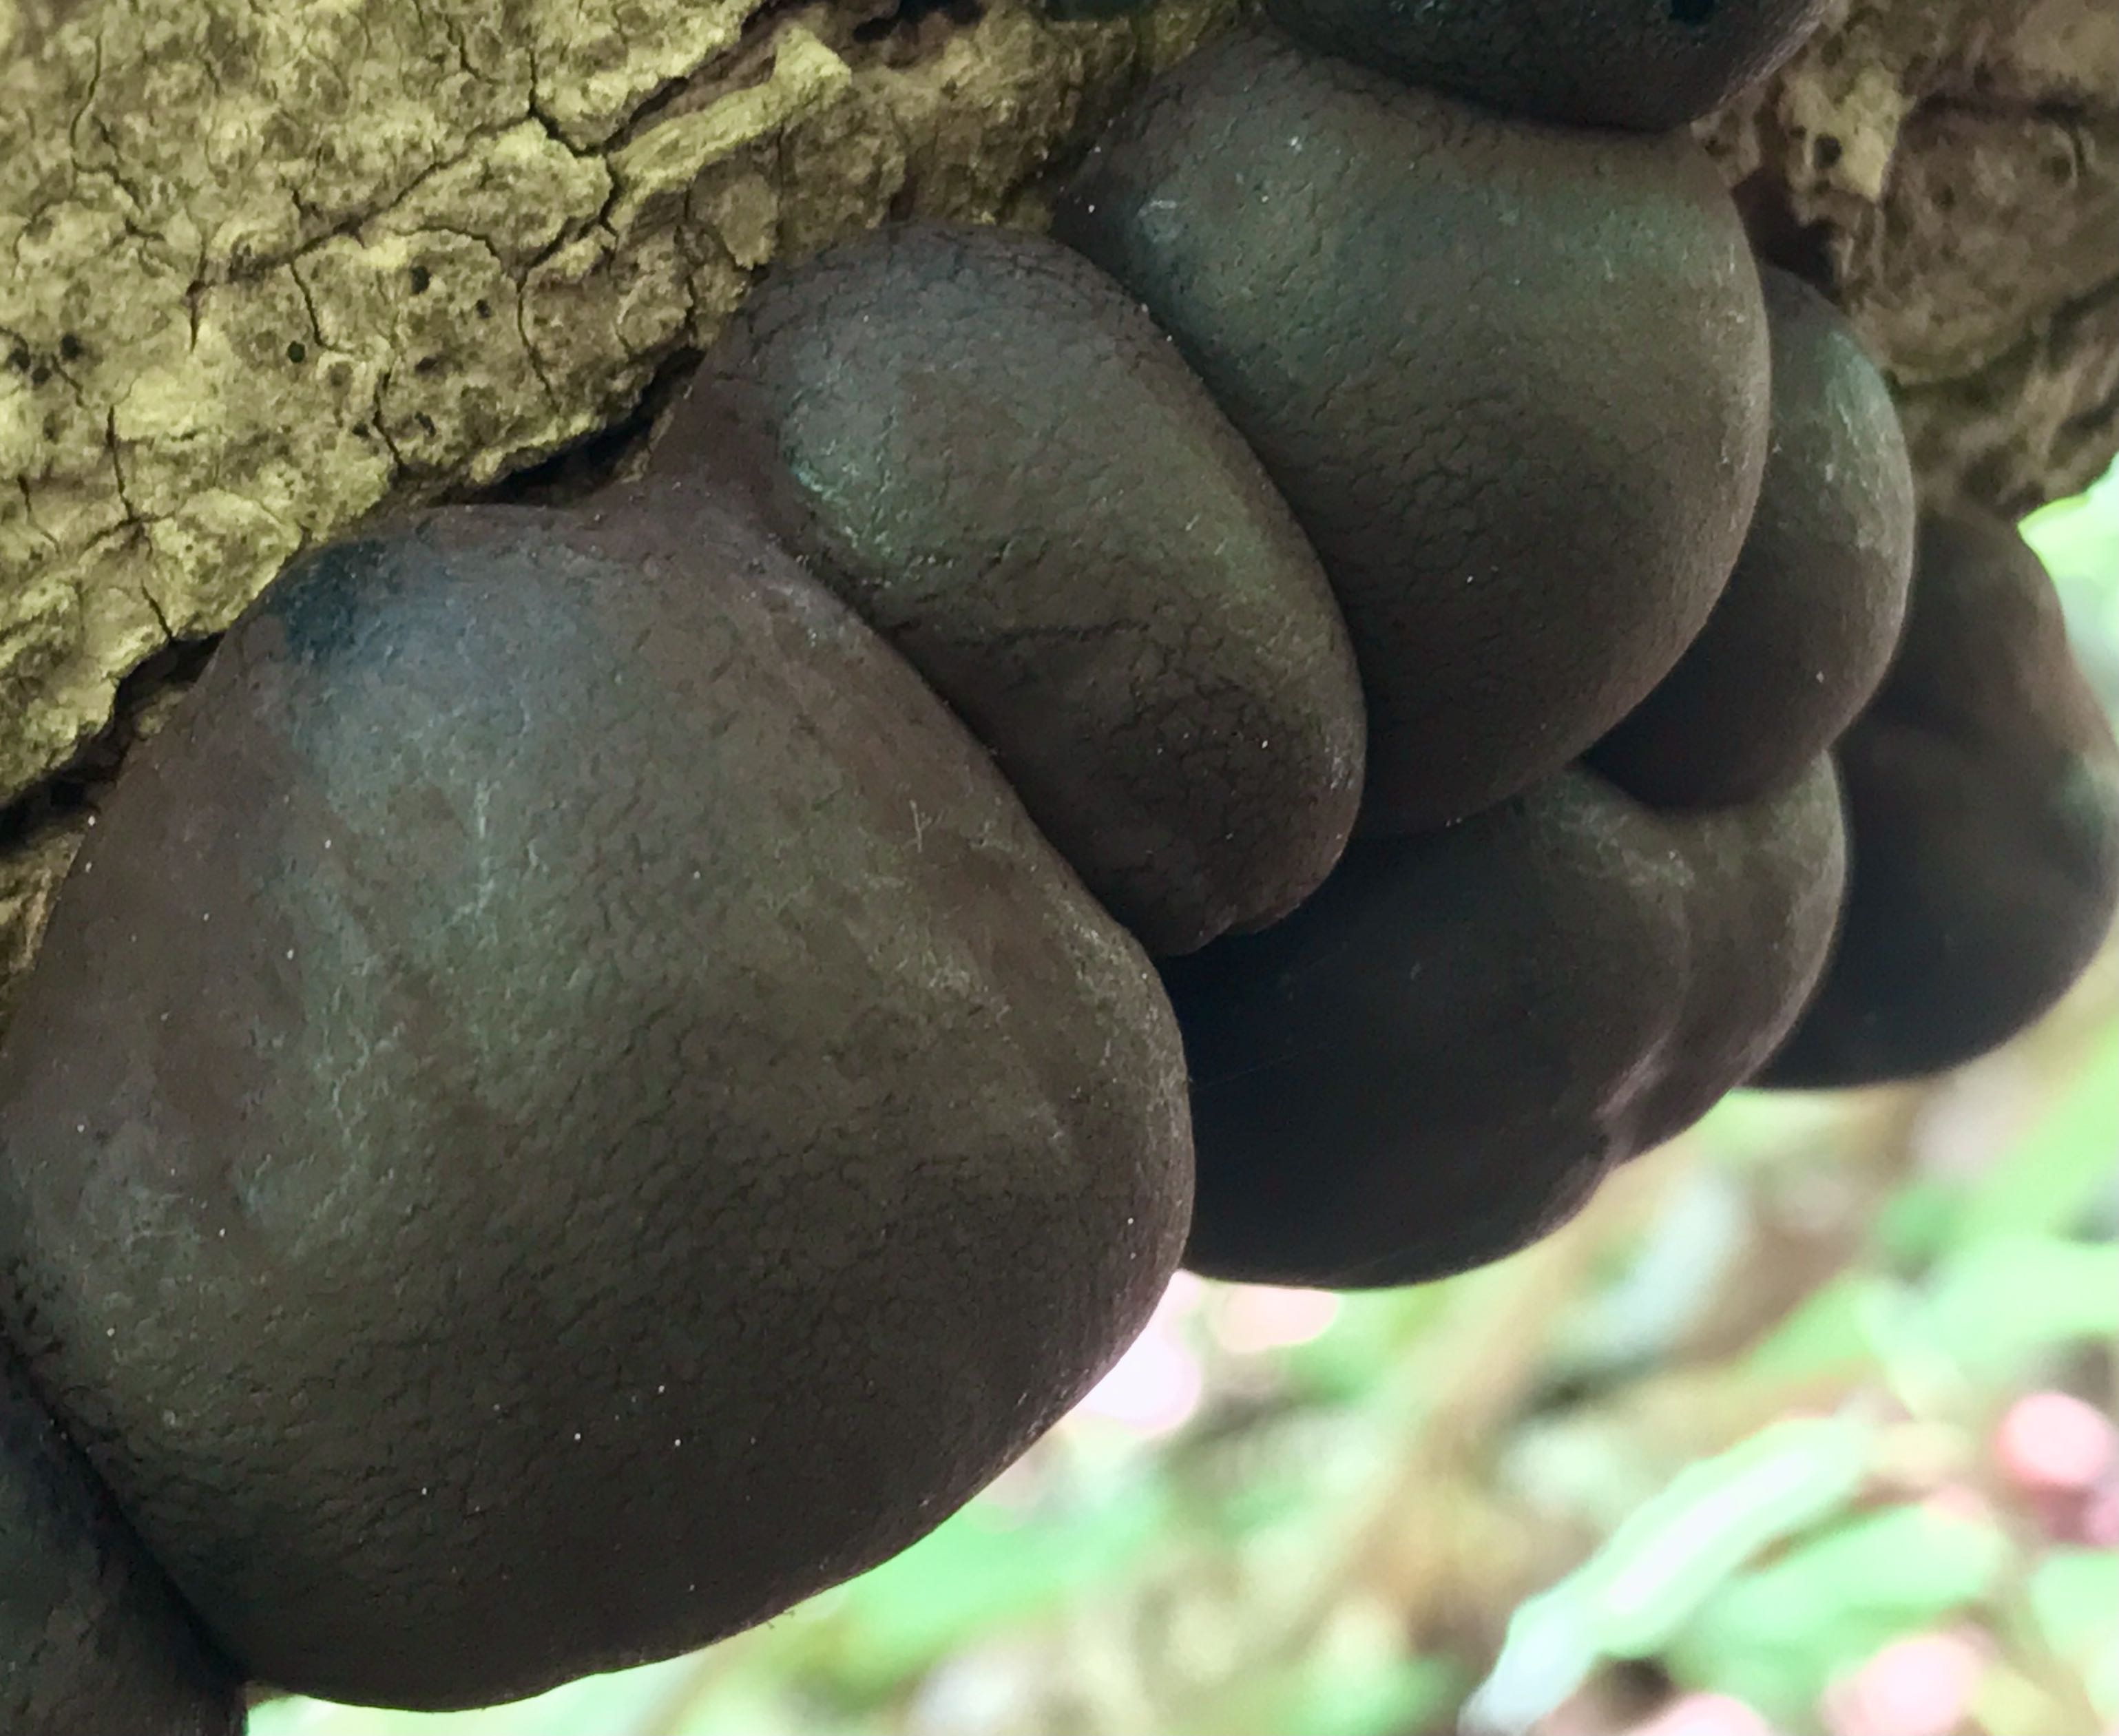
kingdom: Fungi
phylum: Ascomycota
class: Sordariomycetes
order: Xylariales
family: Hypoxylaceae
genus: Daldinia
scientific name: Daldinia concentrica
